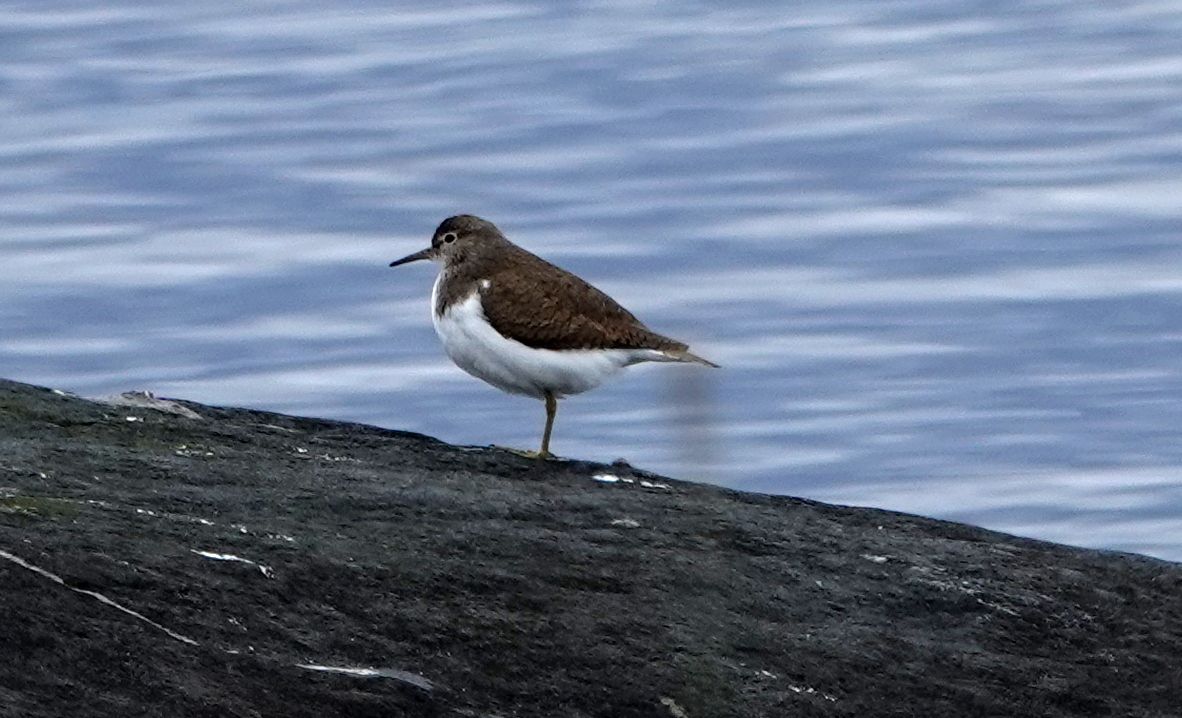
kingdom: Animalia
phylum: Chordata
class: Aves
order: Charadriiformes
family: Scolopacidae
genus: Actitis
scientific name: Actitis hypoleucos
